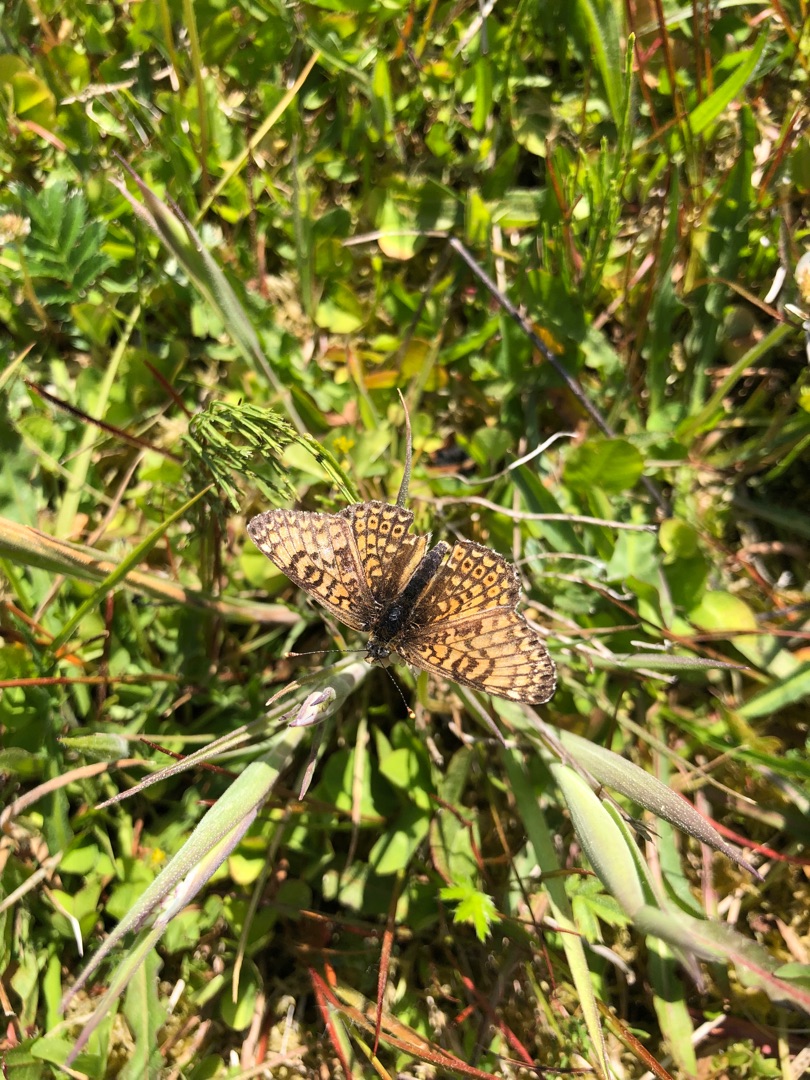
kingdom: Animalia
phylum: Arthropoda
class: Insecta
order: Lepidoptera
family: Nymphalidae
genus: Melitaea
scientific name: Melitaea cinxia
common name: Okkergul pletvinge
